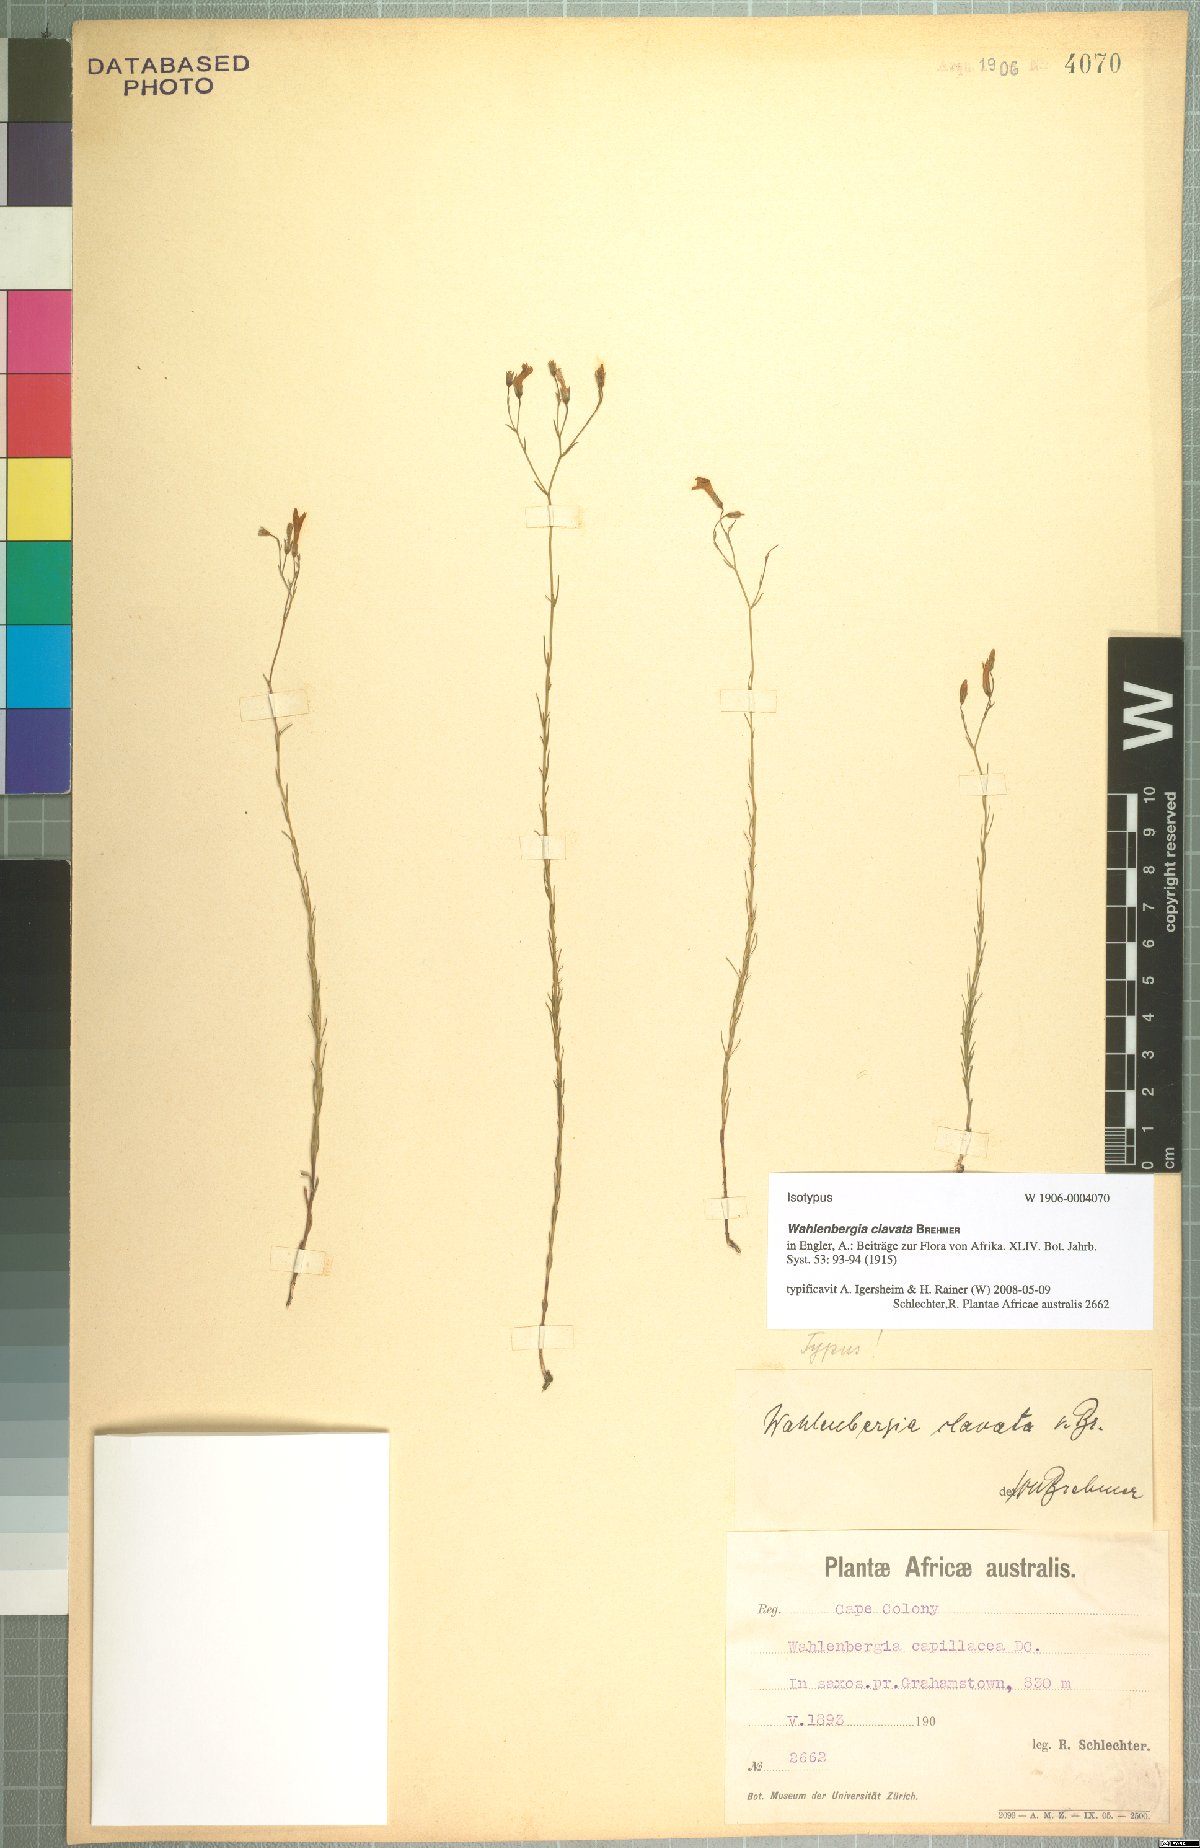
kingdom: Plantae
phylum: Tracheophyta
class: Magnoliopsida
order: Asterales
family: Campanulaceae
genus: Wahlenbergia
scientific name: Wahlenbergia clavata
